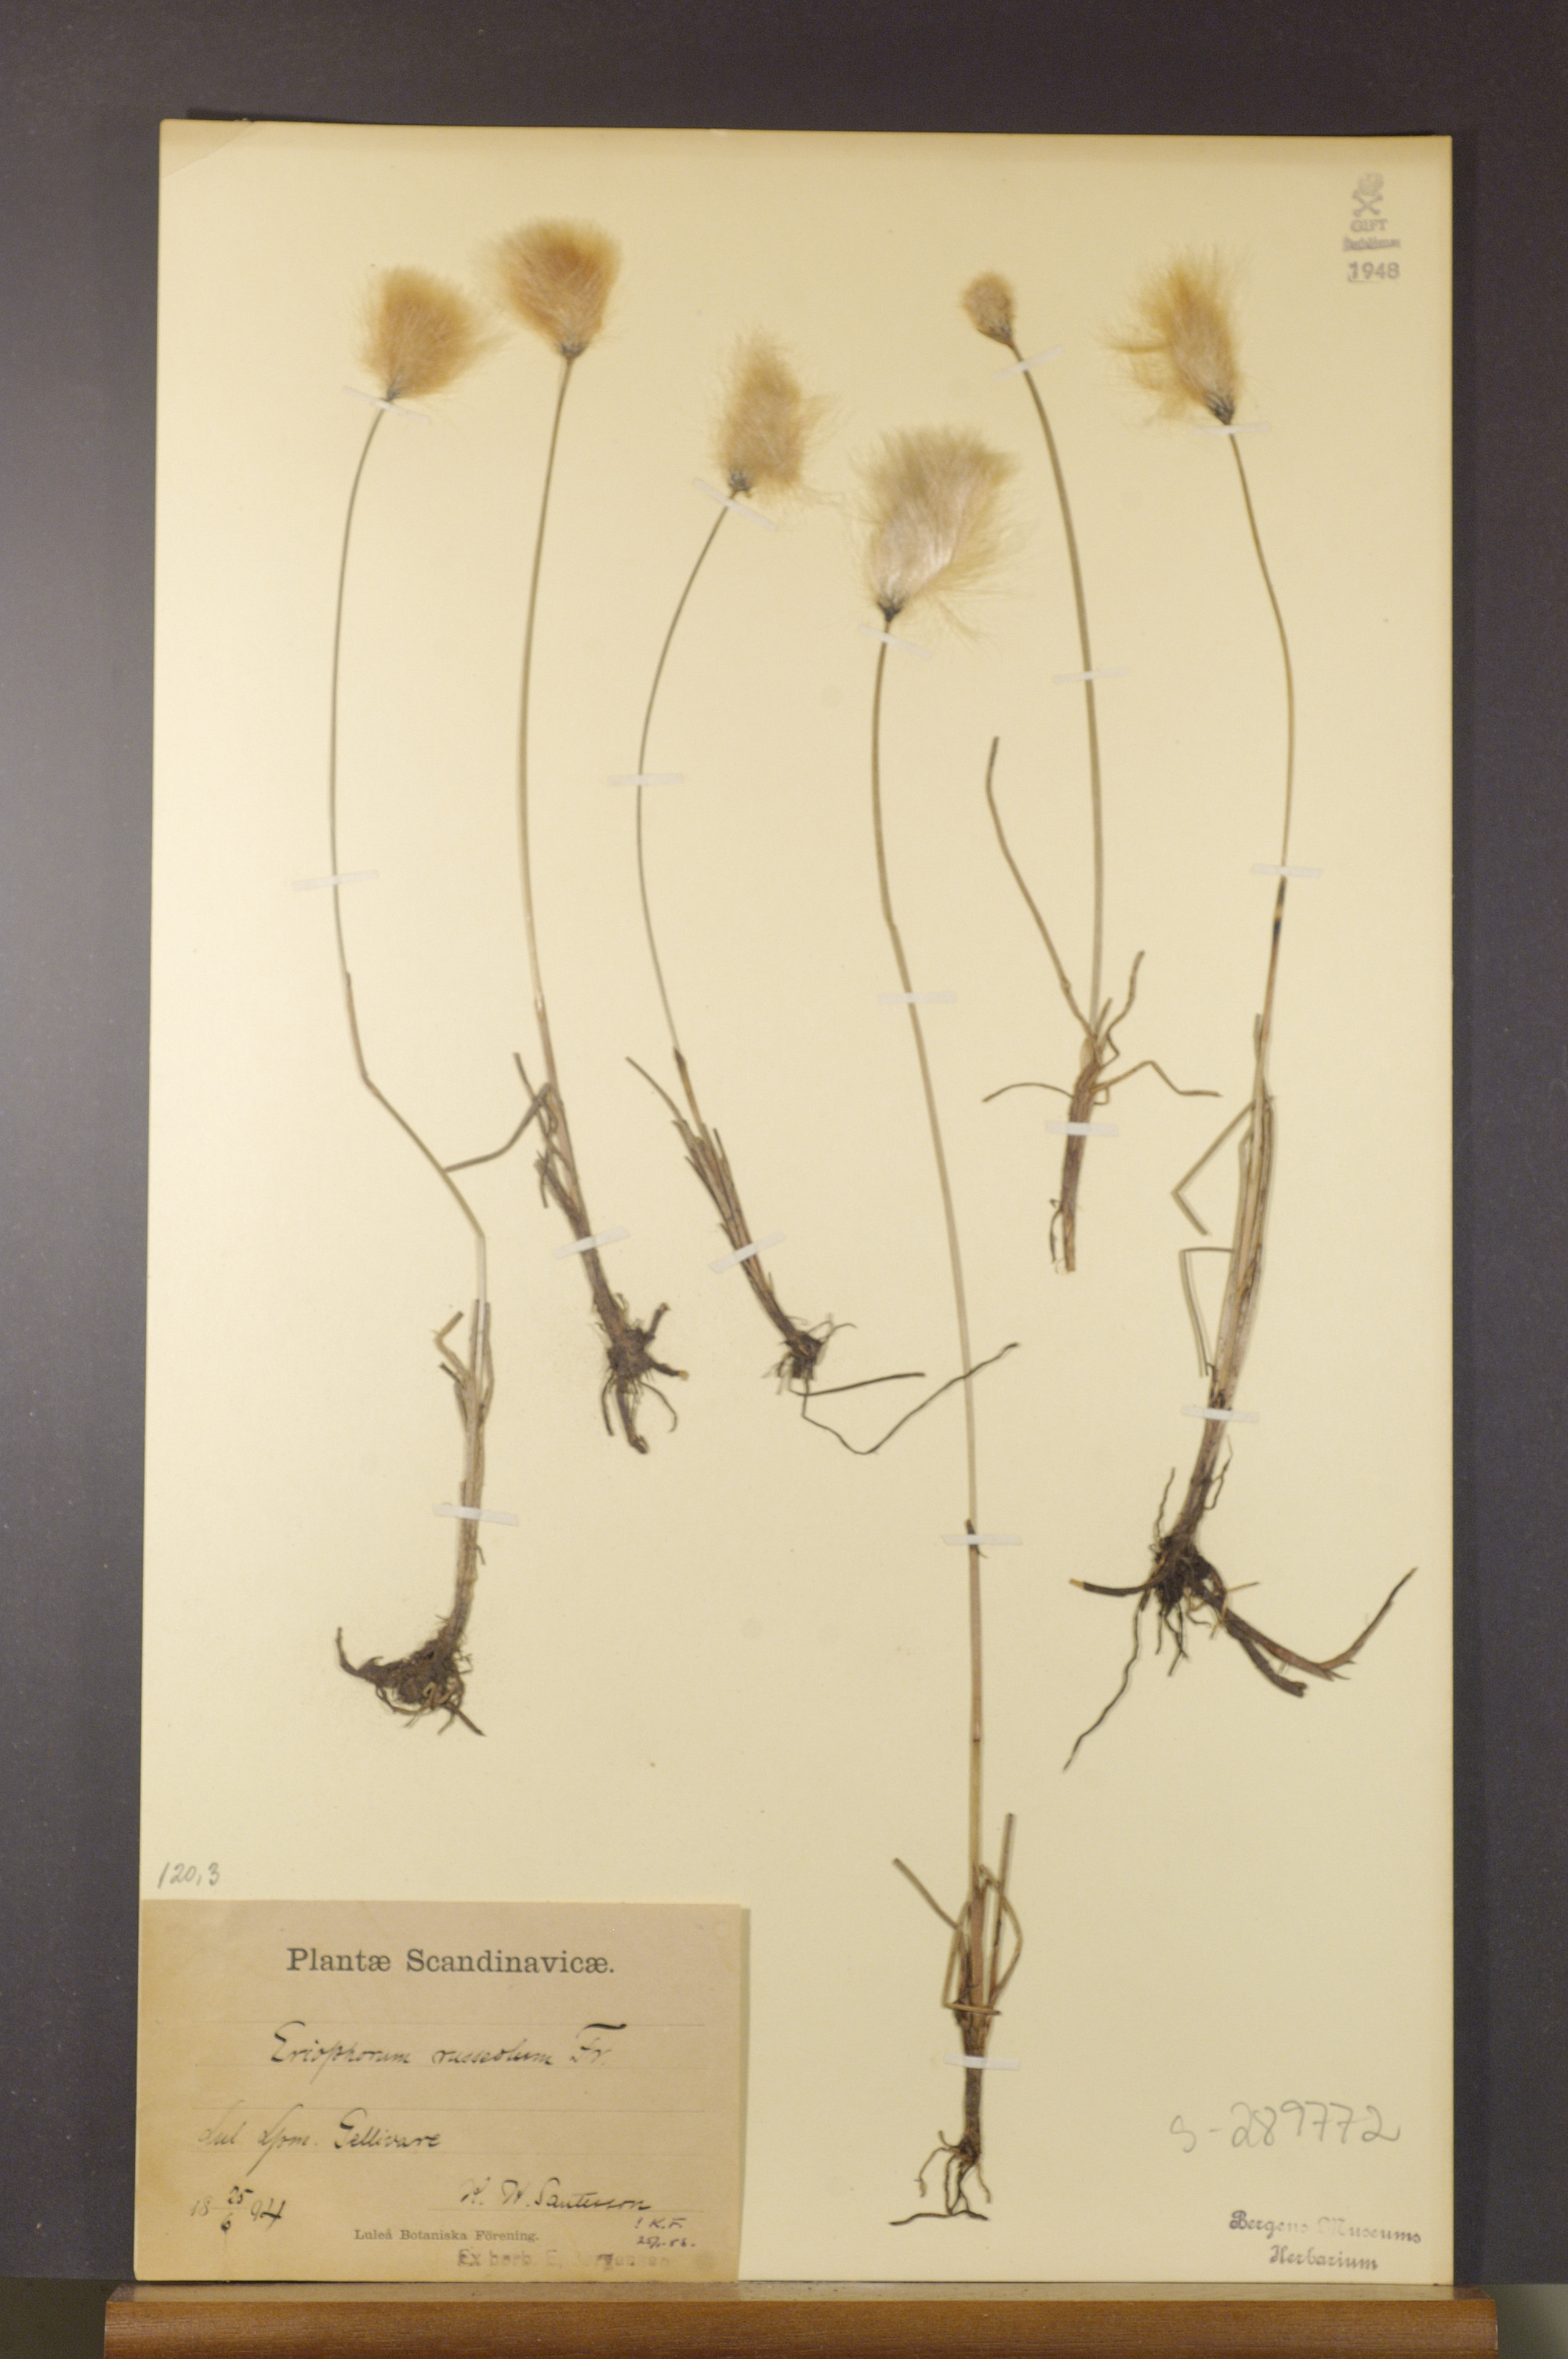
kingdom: Plantae
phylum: Tracheophyta
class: Liliopsida
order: Poales
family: Cyperaceae
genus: Eriophorum
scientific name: Eriophorum russeolum
